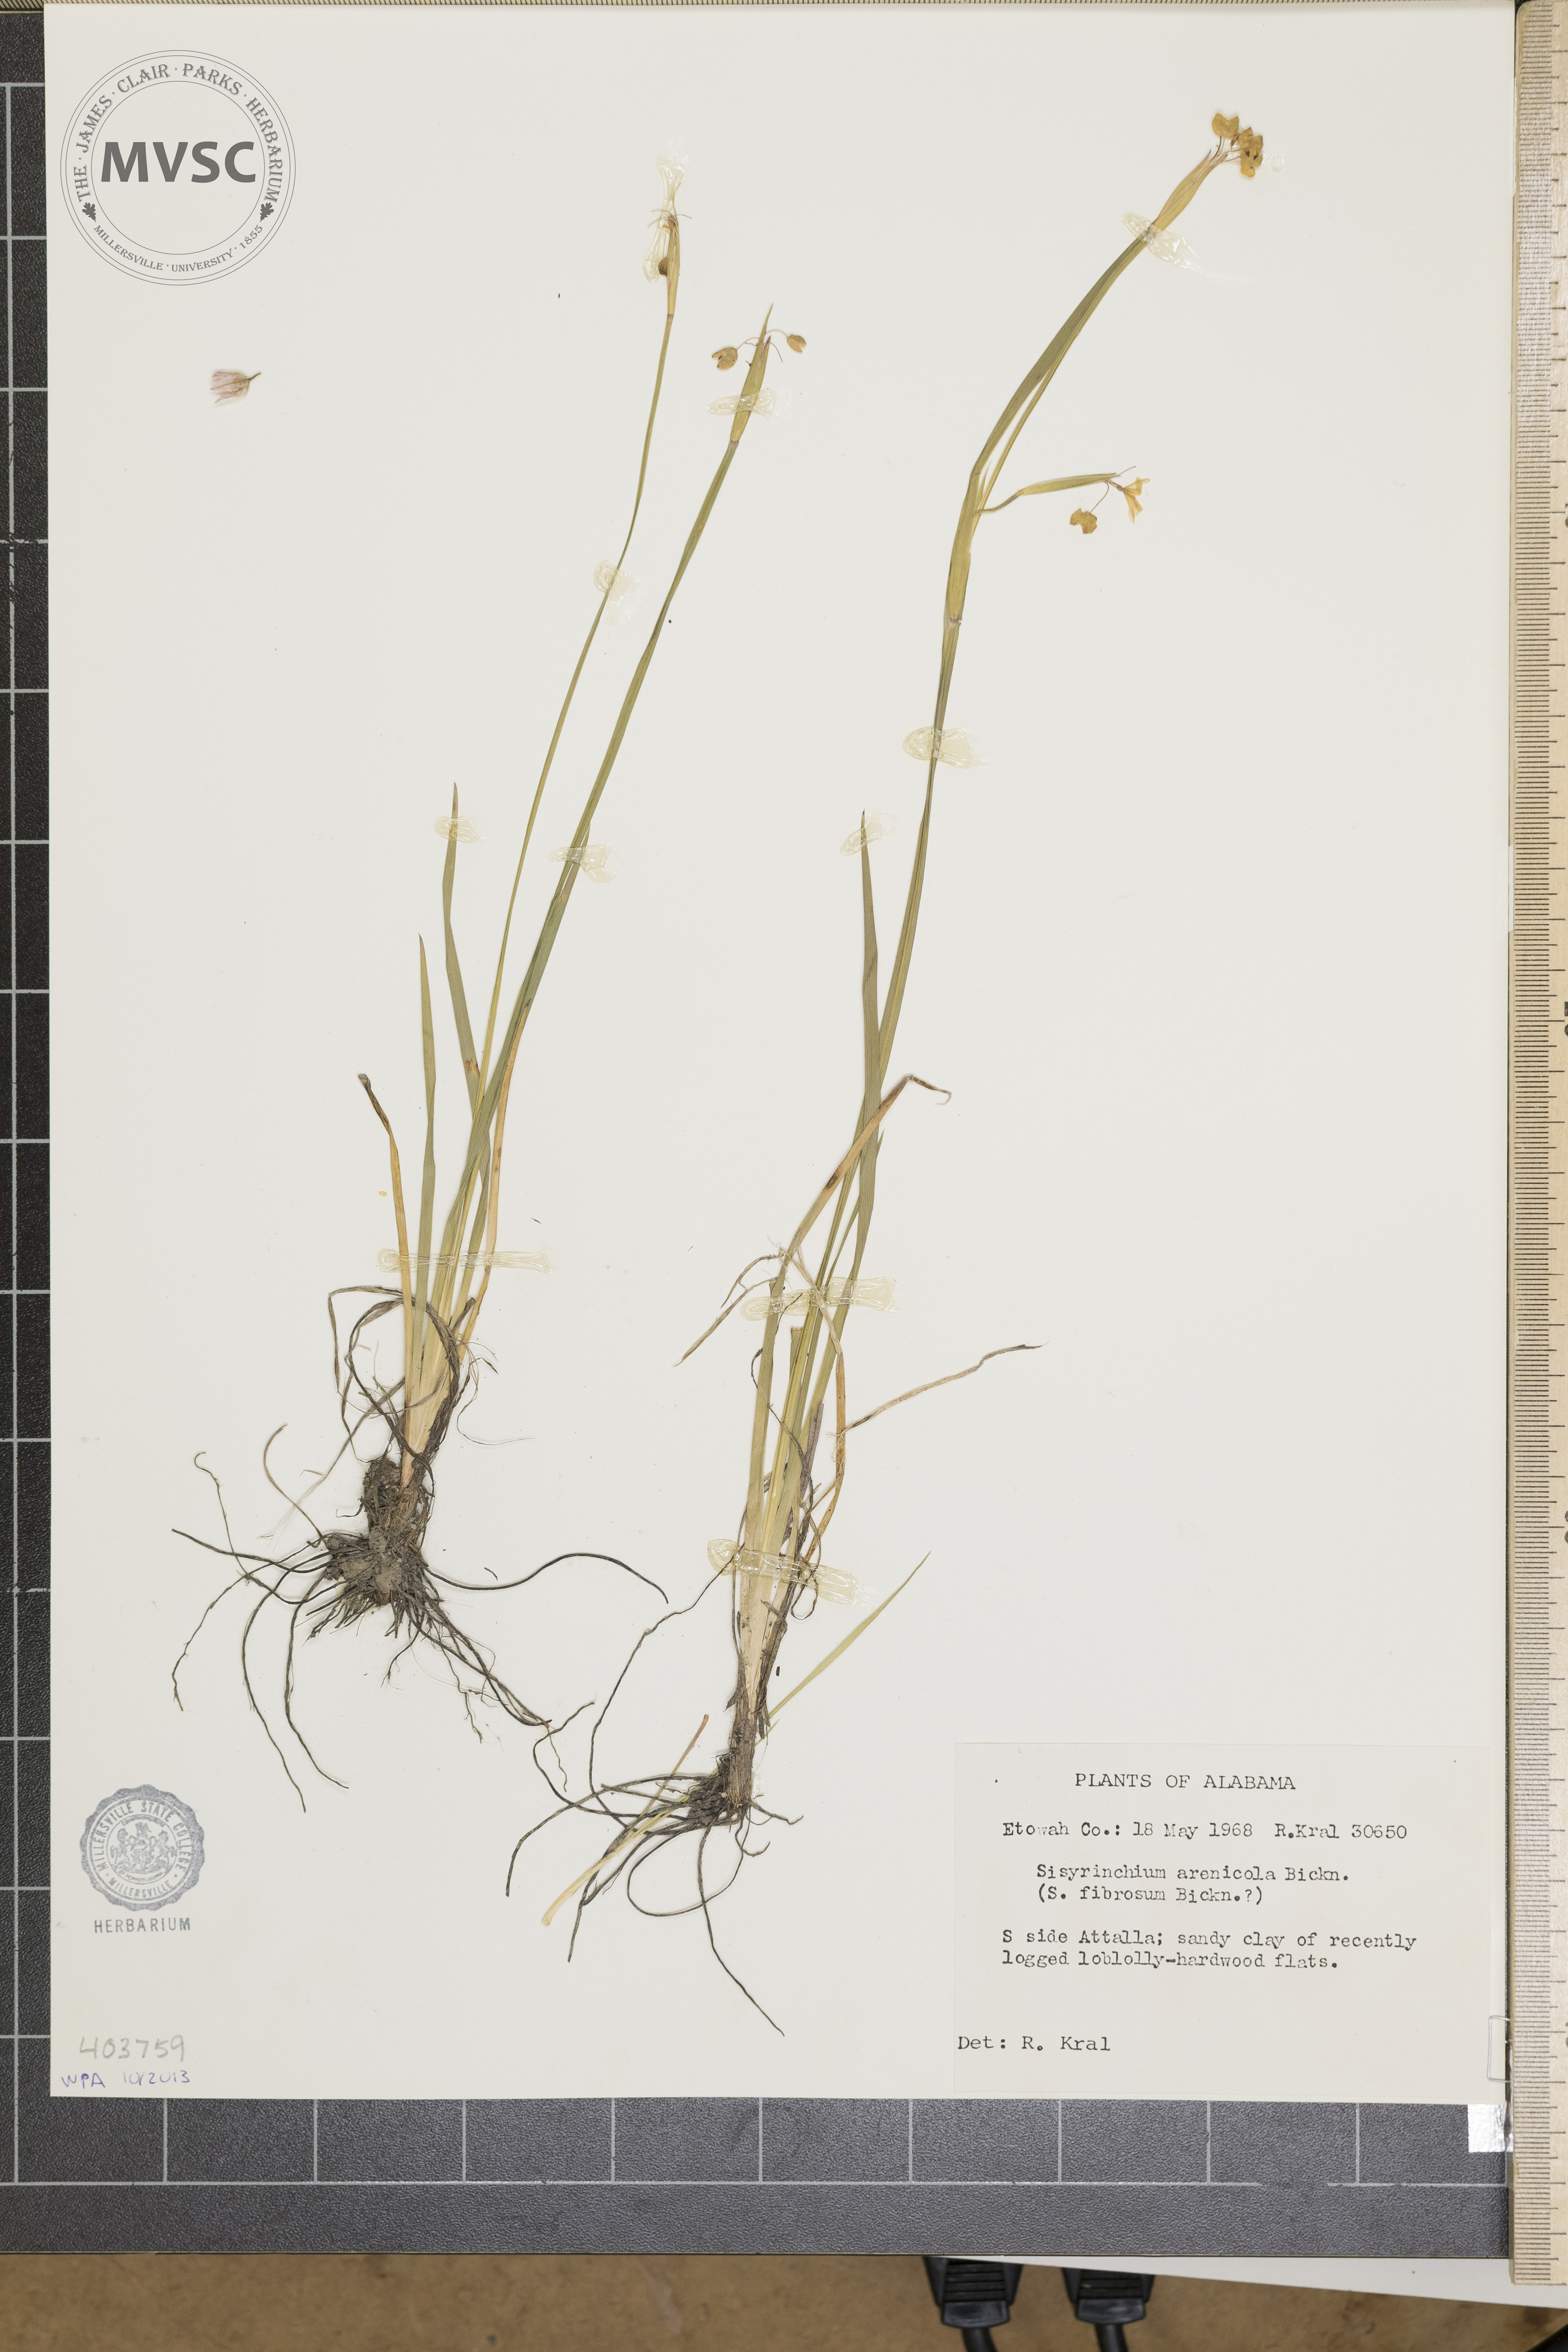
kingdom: Plantae
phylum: Tracheophyta
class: Liliopsida
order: Asparagales
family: Iridaceae
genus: Sisyrinchium
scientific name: Sisyrinchium fuscatum
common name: Coastal plain blue-eyed-grass
